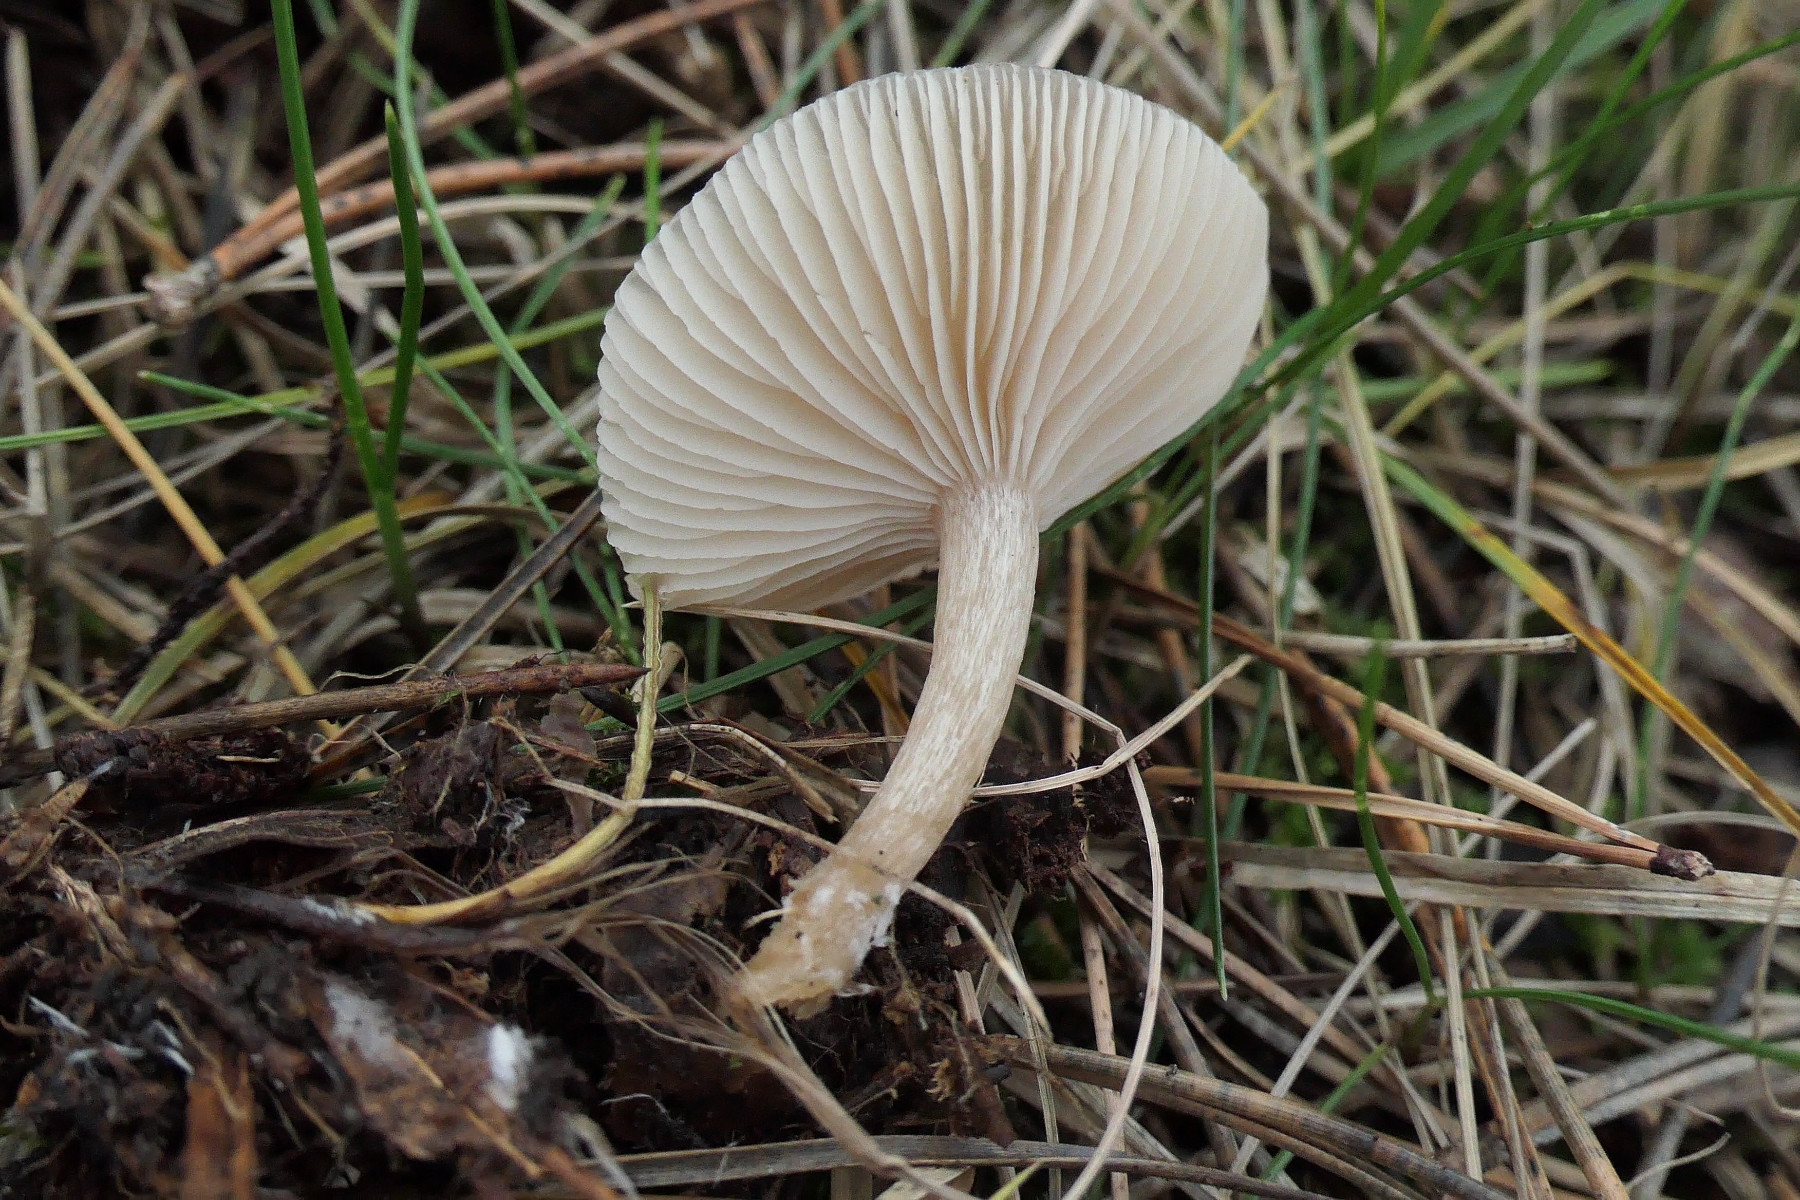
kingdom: Fungi
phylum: Basidiomycota
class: Agaricomycetes
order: Agaricales
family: Tricholomataceae
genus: Clitocybe
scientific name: Clitocybe fragrans
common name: vellugtende tragthat
